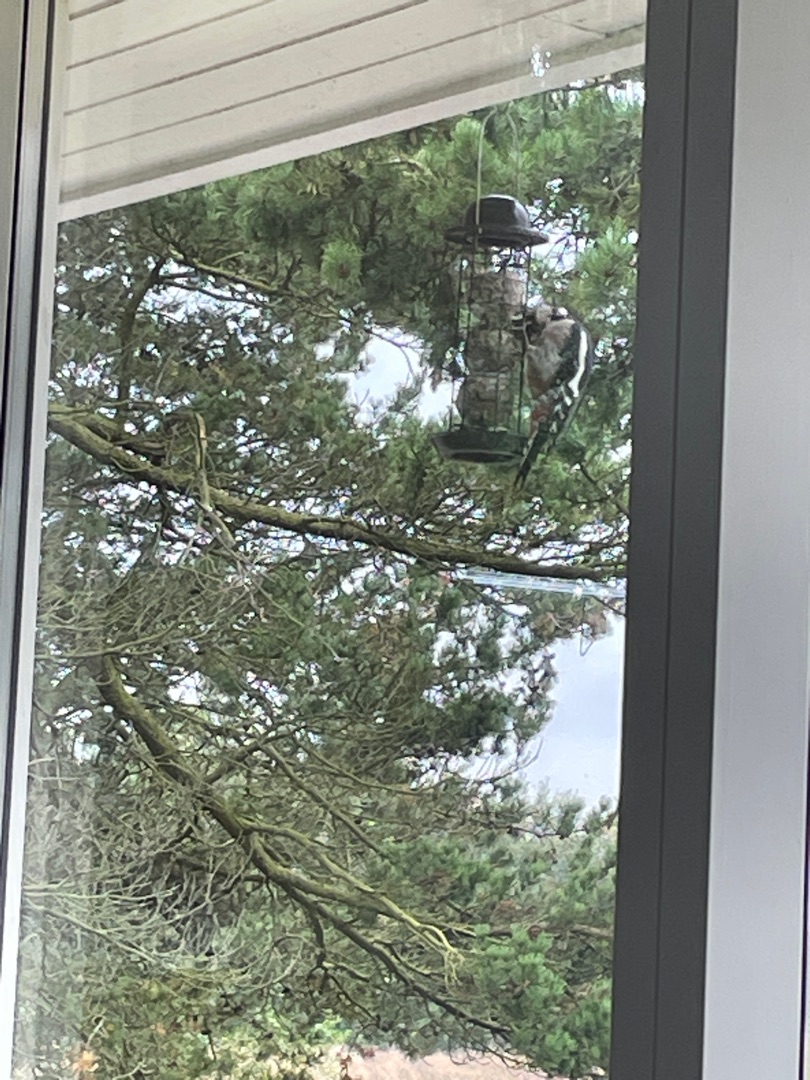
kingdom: Animalia
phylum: Chordata
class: Aves
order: Piciformes
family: Picidae
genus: Dendrocopos
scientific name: Dendrocopos major
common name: Stor flagspætte
